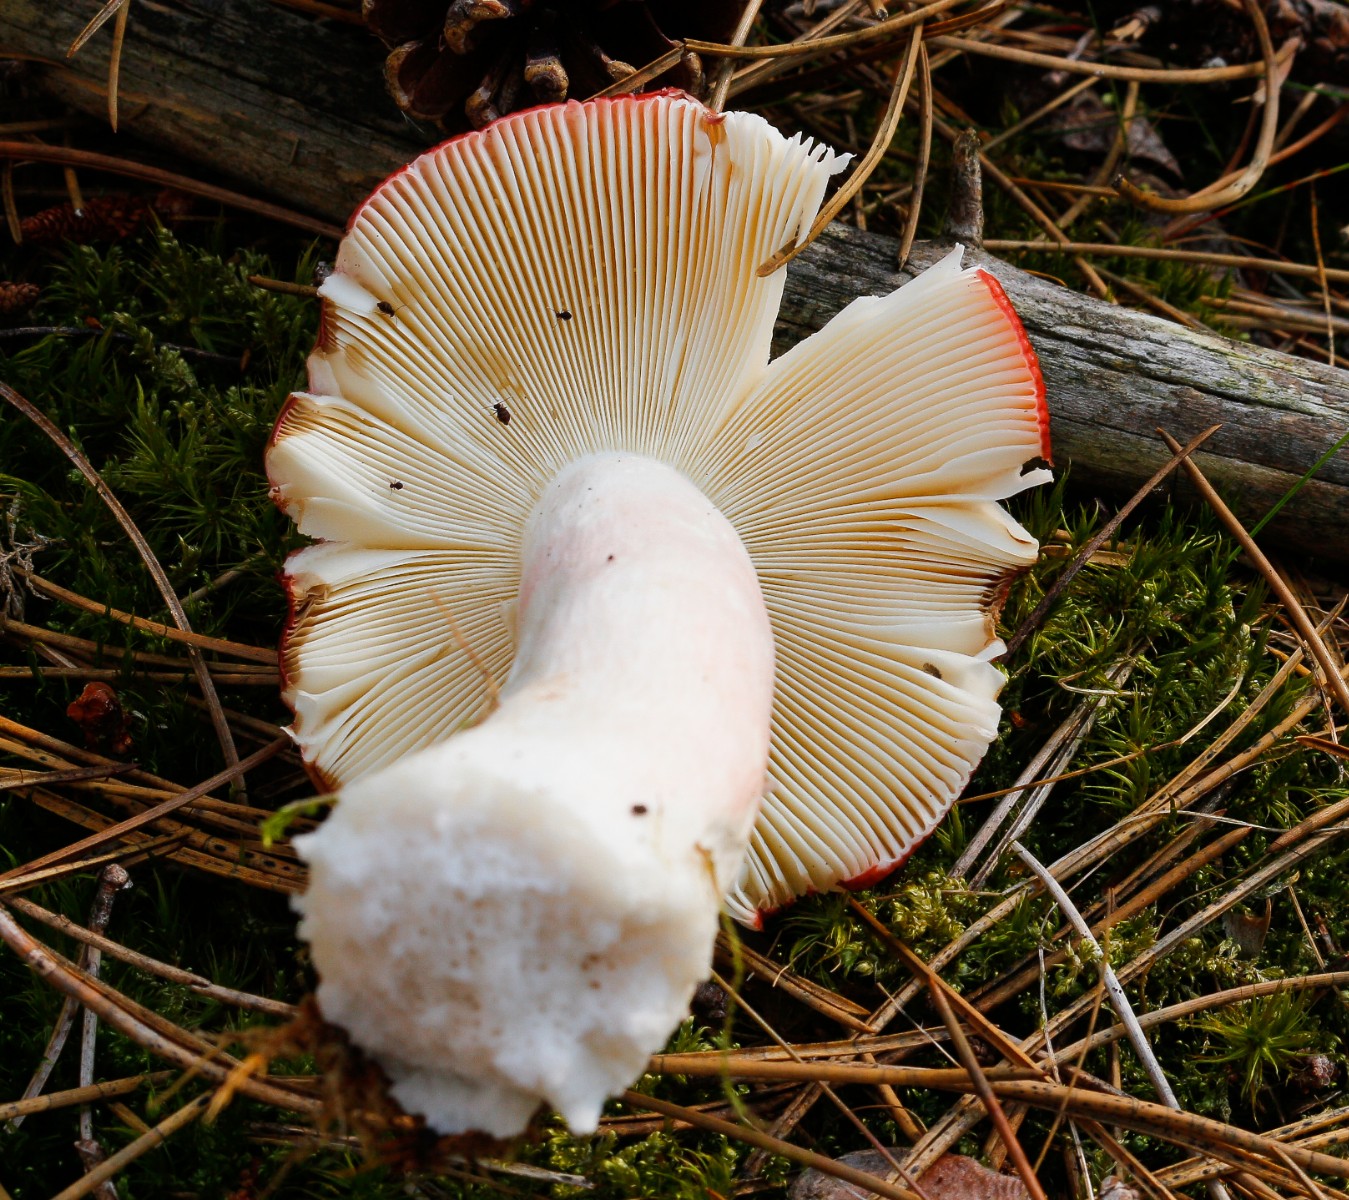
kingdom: Fungi
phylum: Basidiomycota
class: Agaricomycetes
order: Russulales
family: Russulaceae
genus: Russula
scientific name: Russula paludosa
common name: prægtig skørhat
